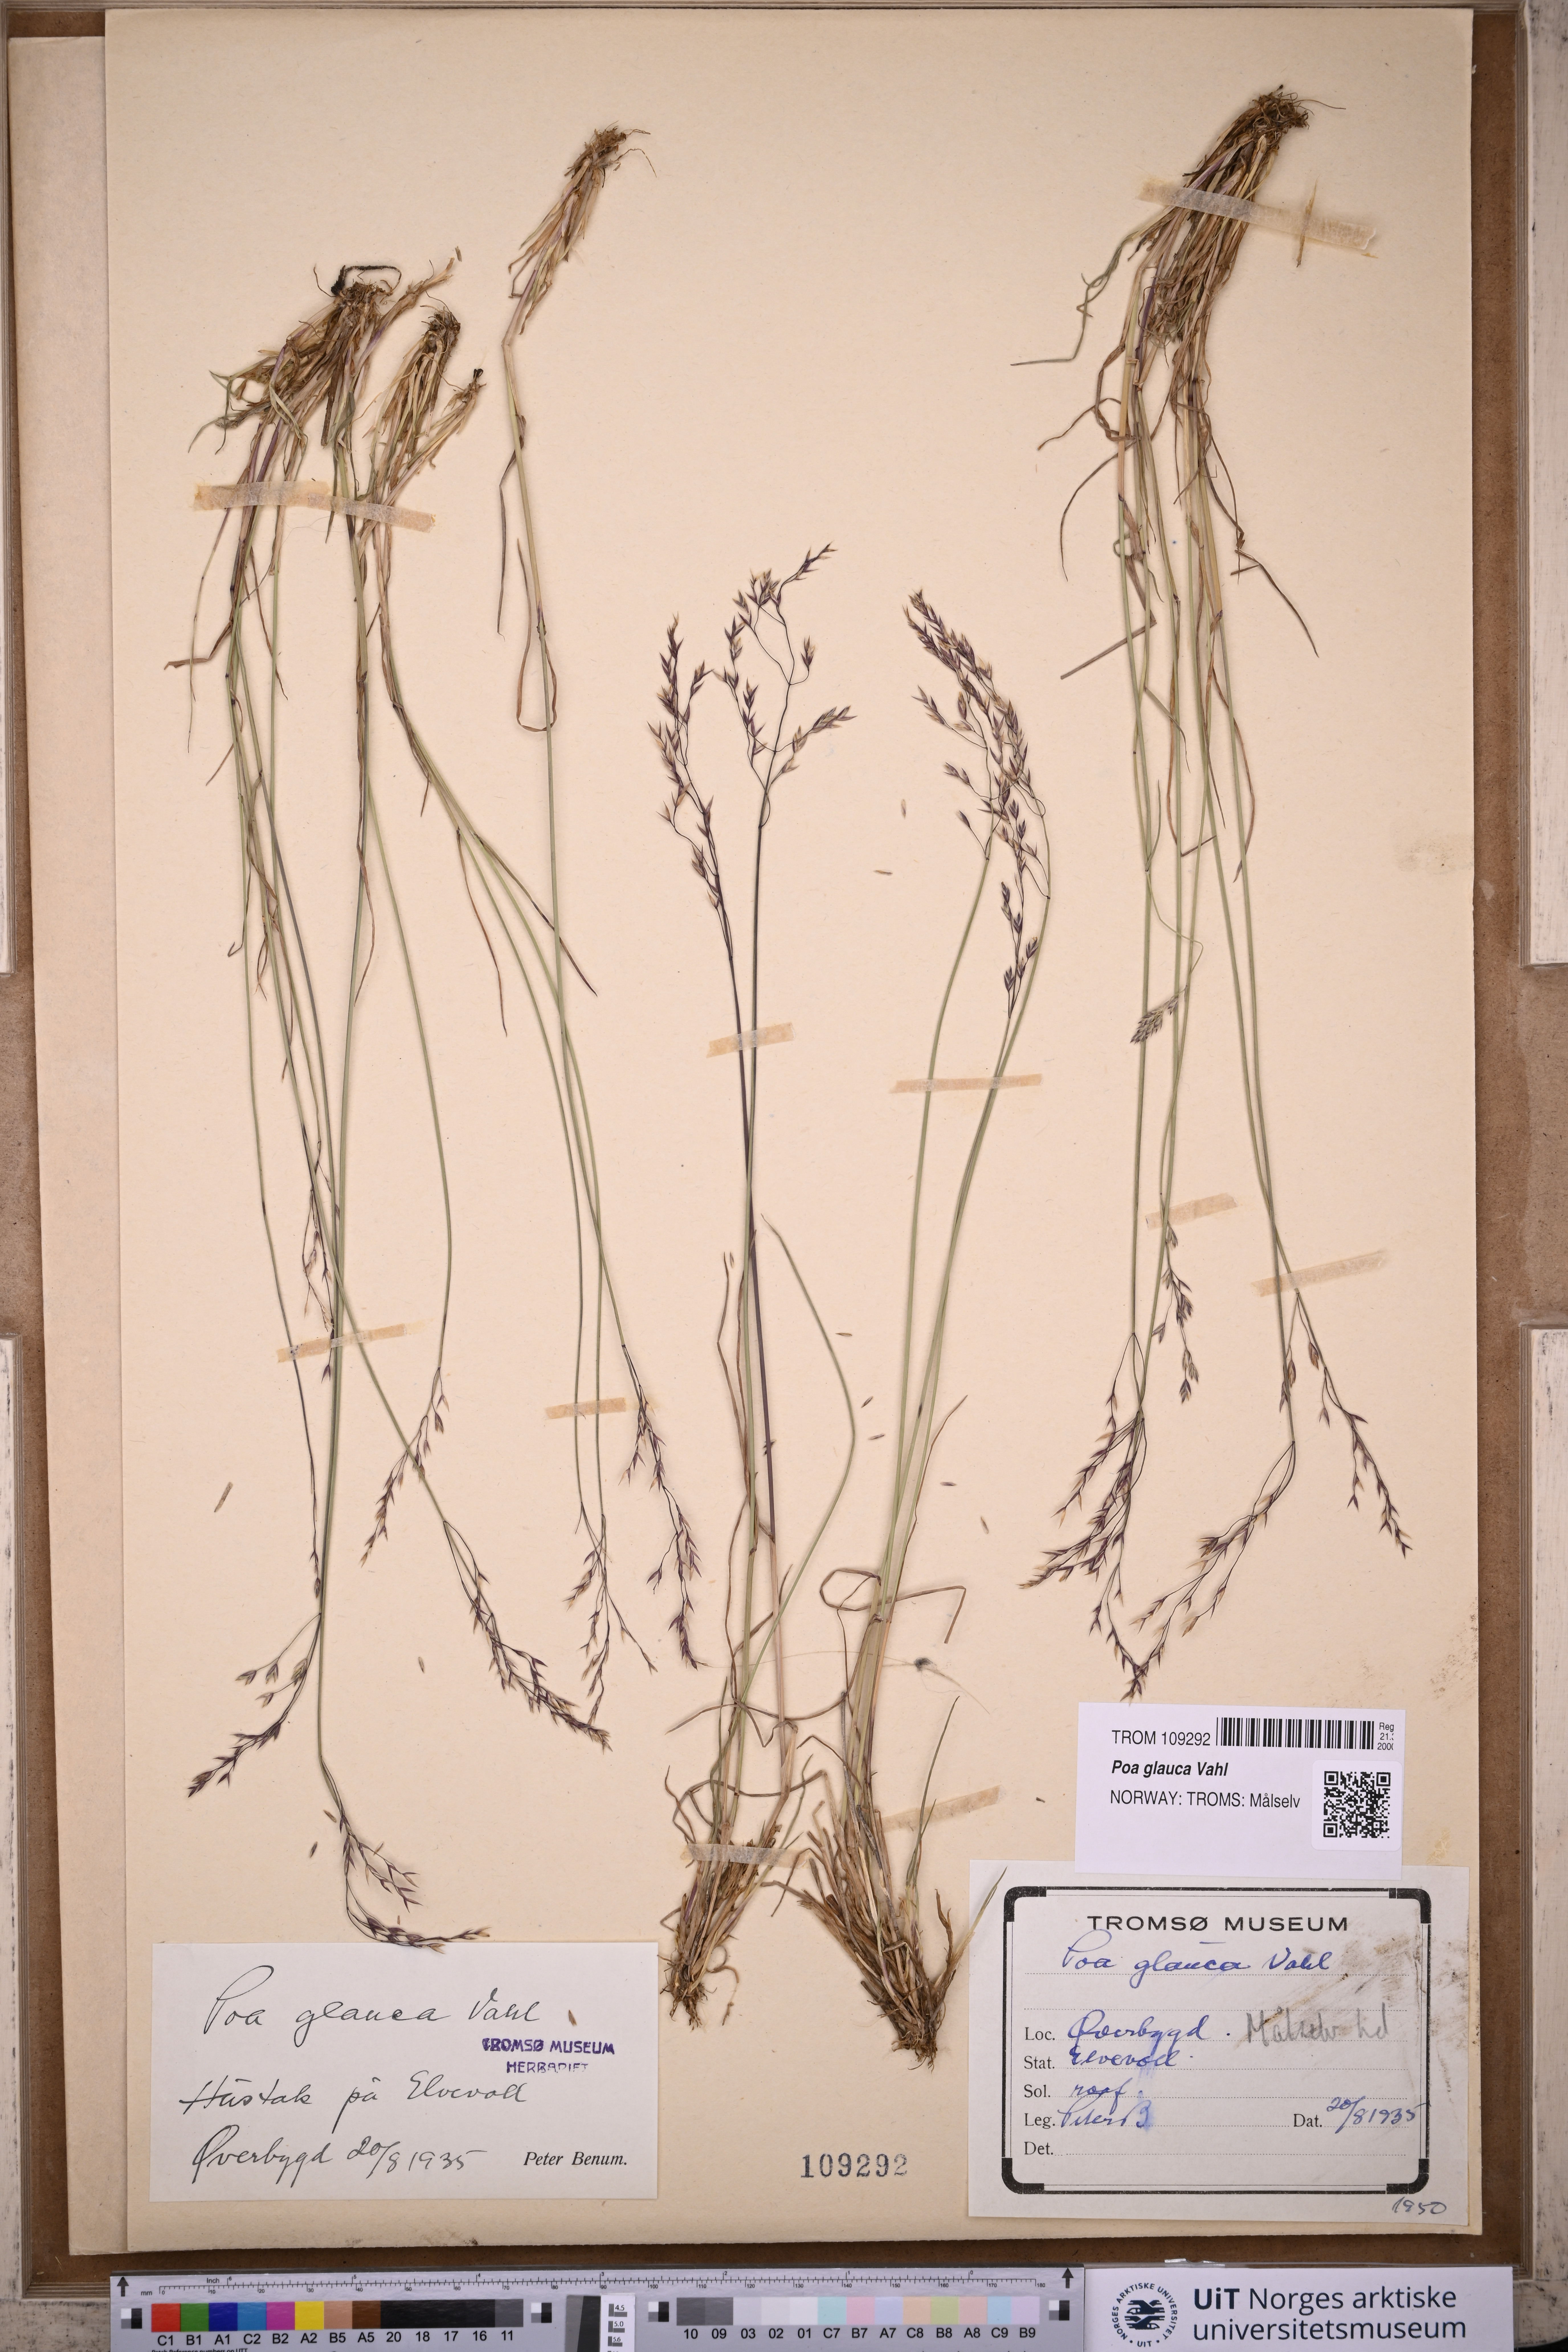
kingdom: Plantae
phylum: Tracheophyta
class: Liliopsida
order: Poales
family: Poaceae
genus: Poa
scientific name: Poa glauca
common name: Glaucous bluegrass
